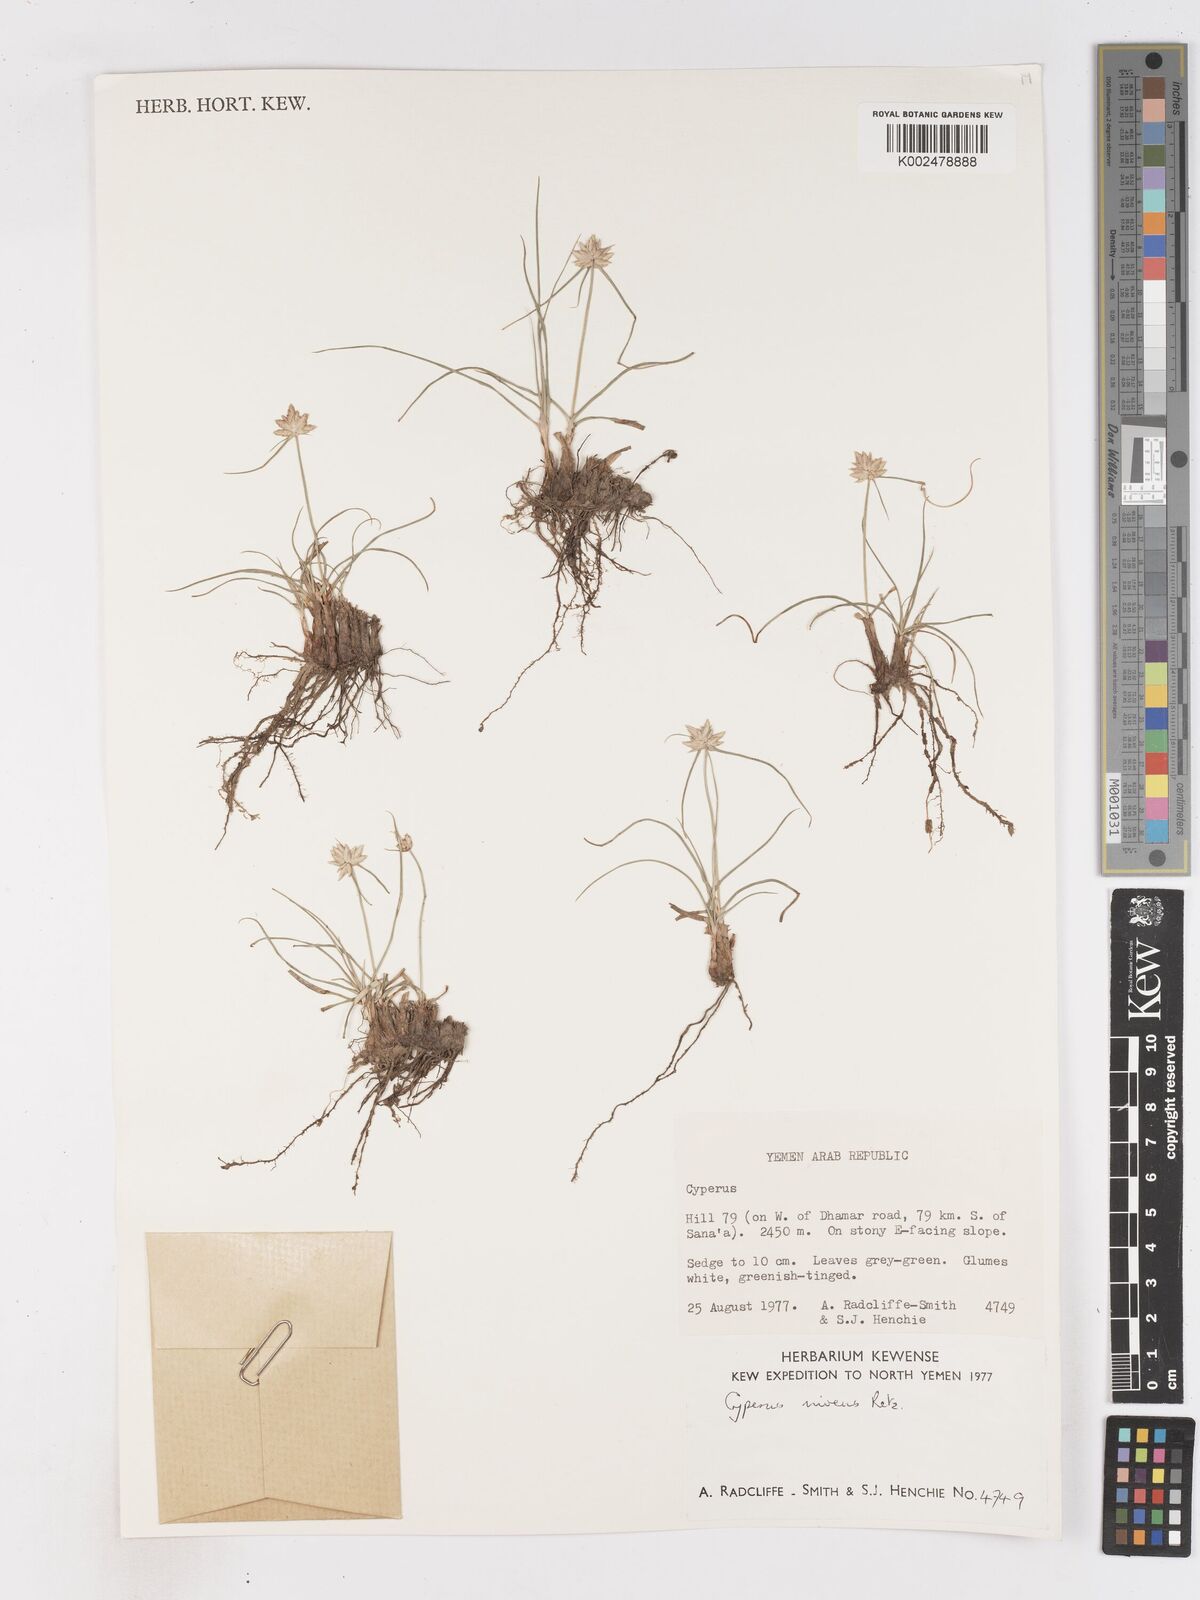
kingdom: Plantae
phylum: Tracheophyta
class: Liliopsida
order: Poales
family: Cyperaceae
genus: Cyperus
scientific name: Cyperus niveus
